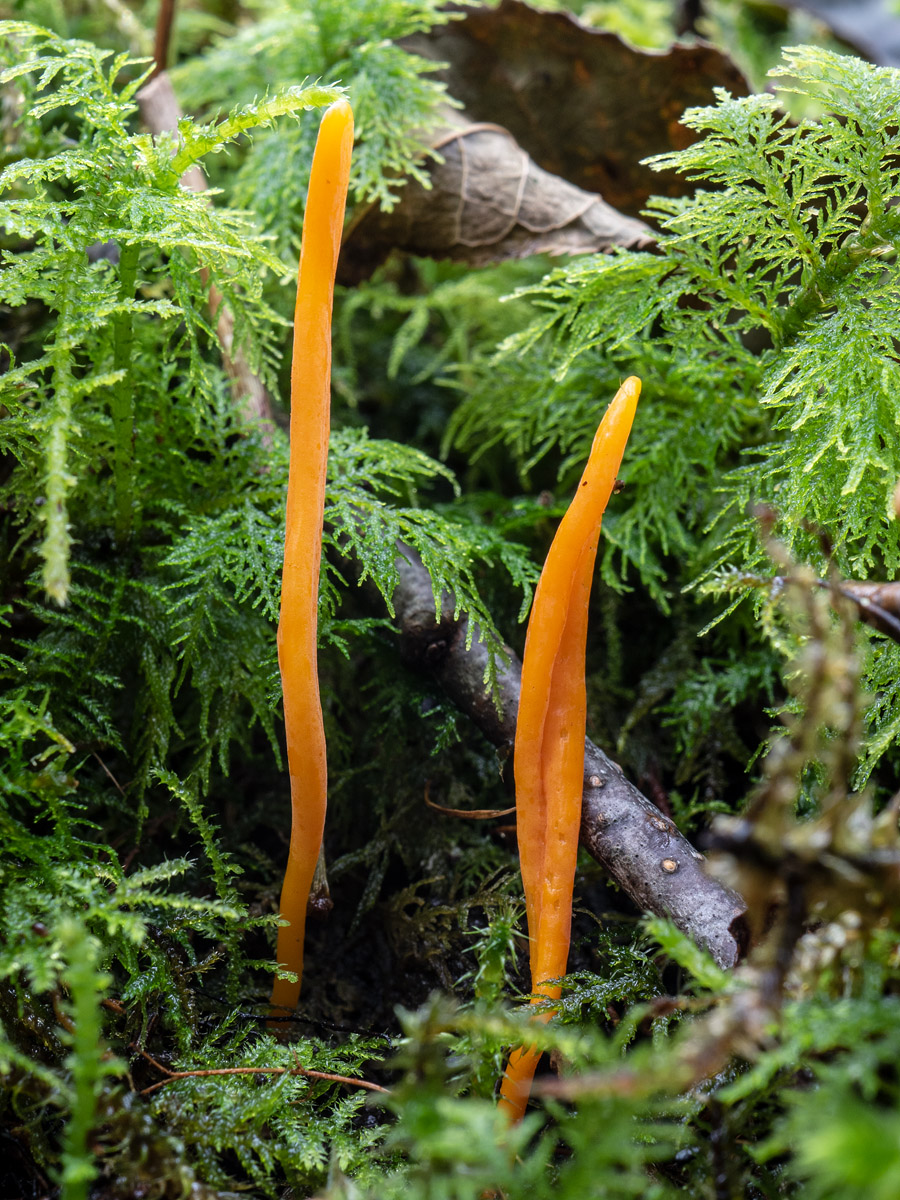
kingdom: Fungi
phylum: Basidiomycota
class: Agaricomycetes
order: Agaricales
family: Clavariaceae
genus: Clavulinopsis
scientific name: Clavulinopsis laeticolor
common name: flamme-køllesvamp
